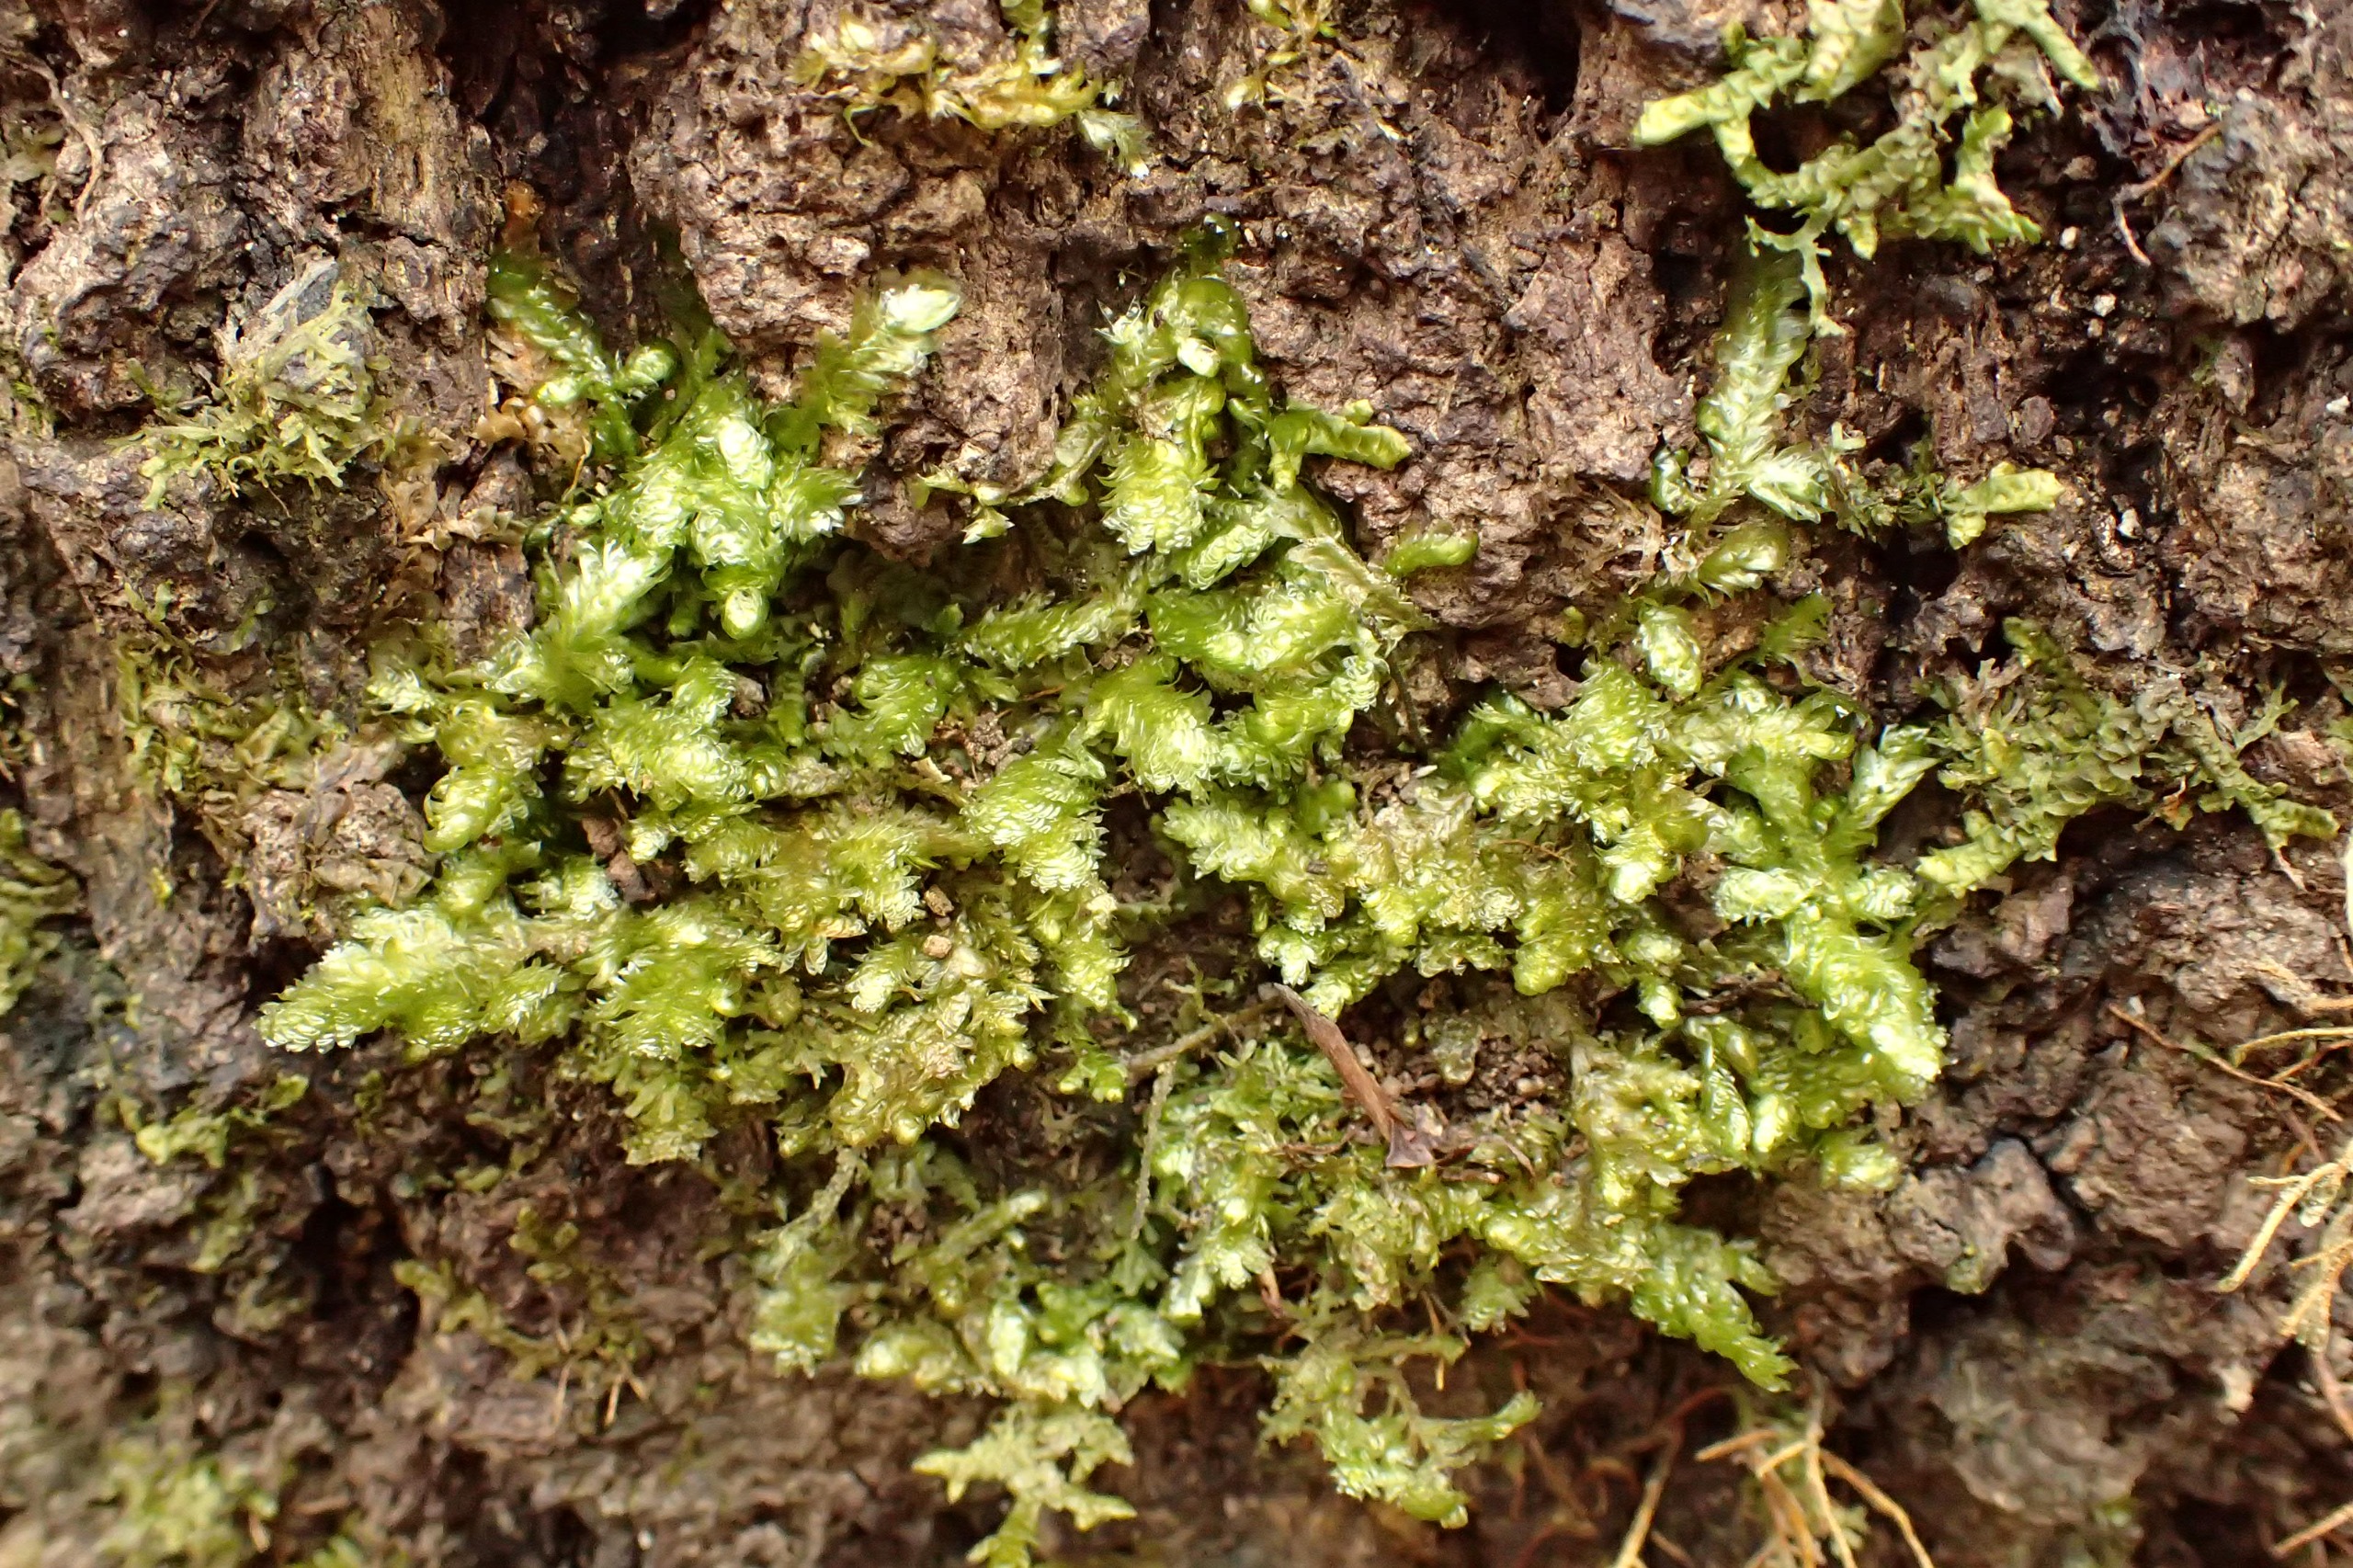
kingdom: Plantae
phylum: Bryophyta
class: Bryopsida
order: Hypnales
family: Neckeraceae
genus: Exsertotheca
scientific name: Exsertotheca crispa
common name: Kruset fladmos
